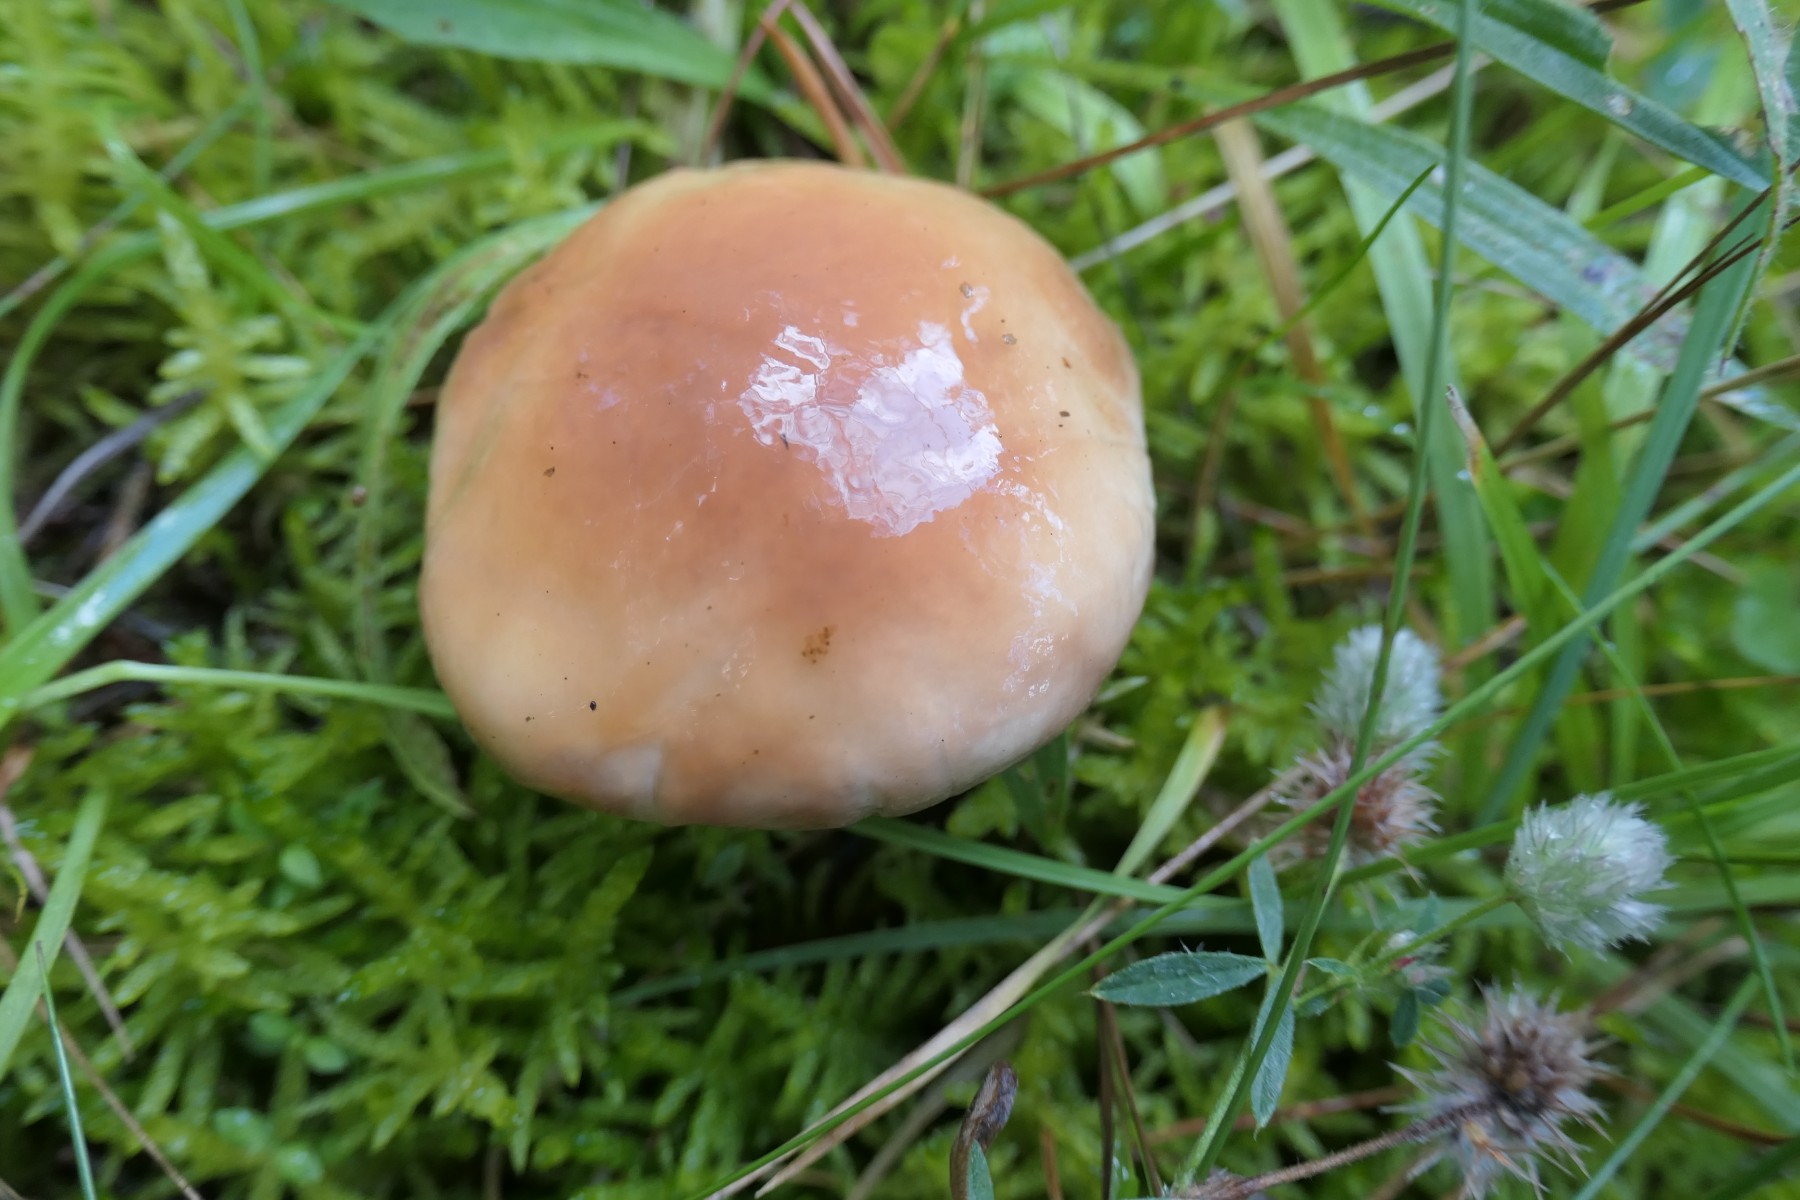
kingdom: Fungi
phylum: Basidiomycota
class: Agaricomycetes
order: Boletales
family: Suillaceae
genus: Suillus
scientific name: Suillus granulatus
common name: kornet slimrørhat
